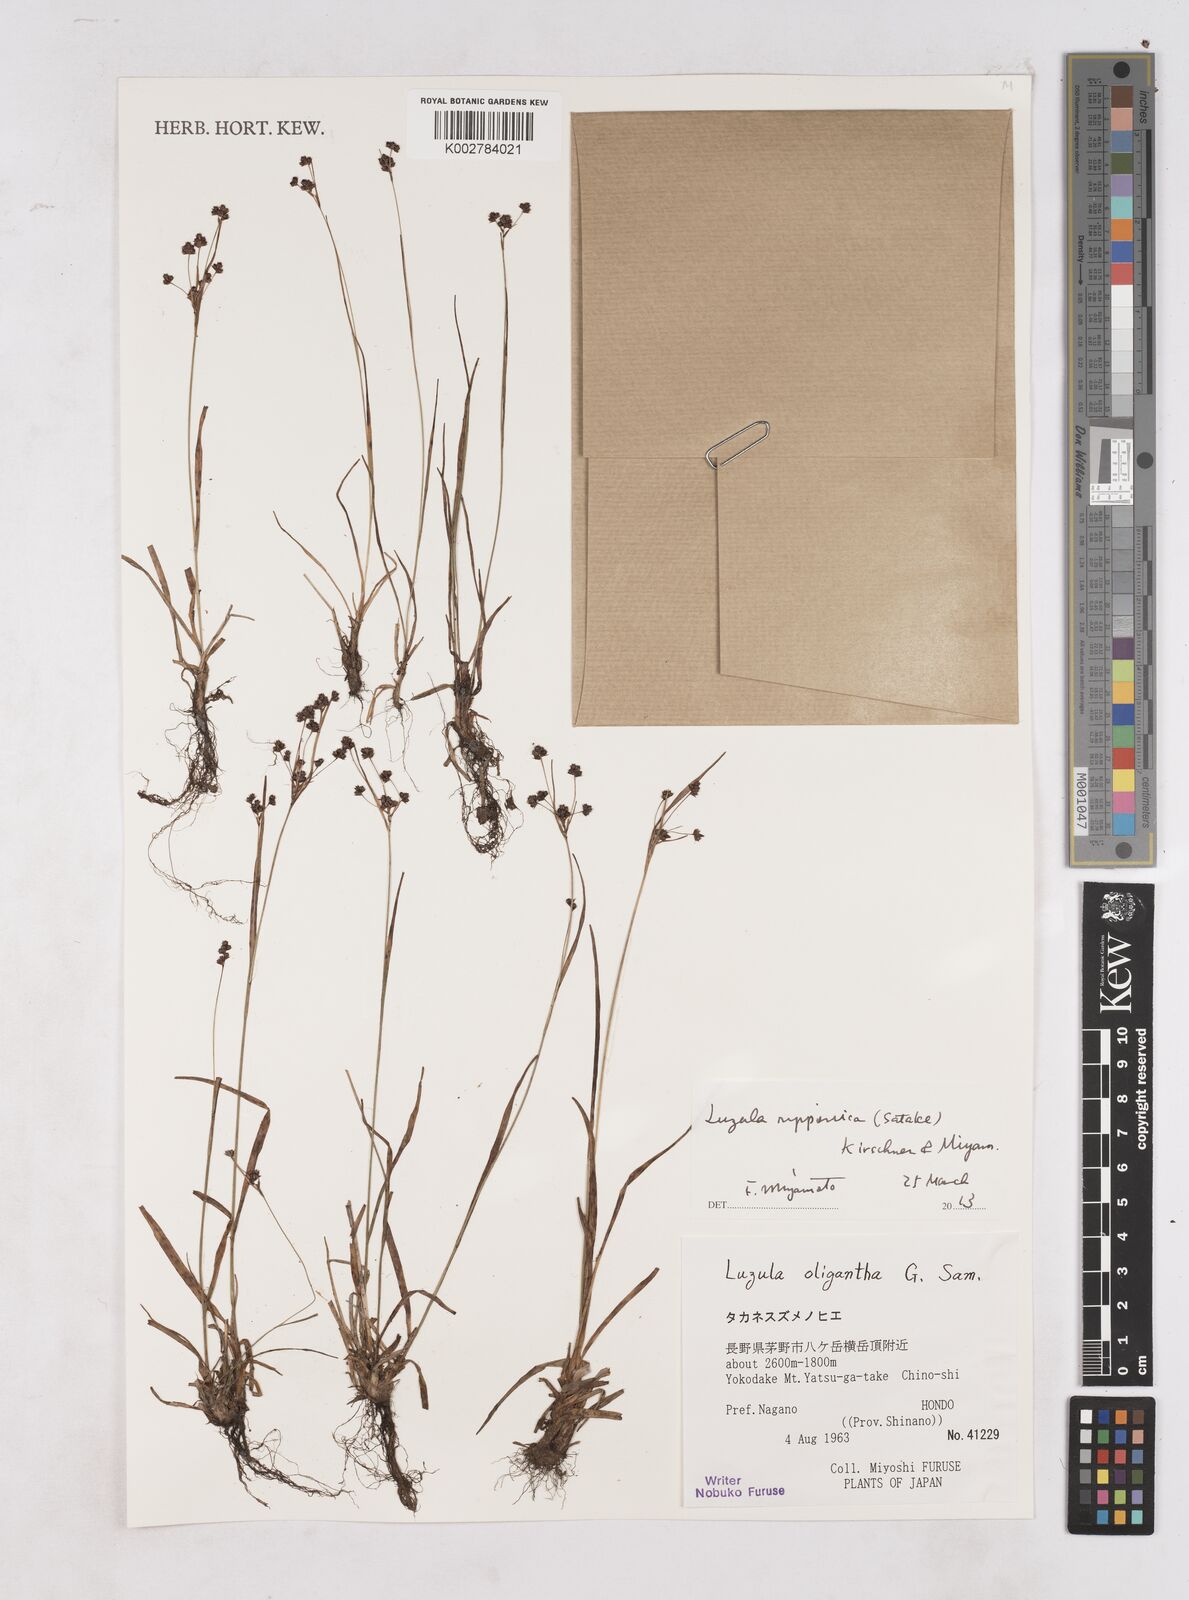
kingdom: Plantae
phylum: Tracheophyta
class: Liliopsida
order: Poales
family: Juncaceae
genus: Luzula
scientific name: Luzula oligantha
